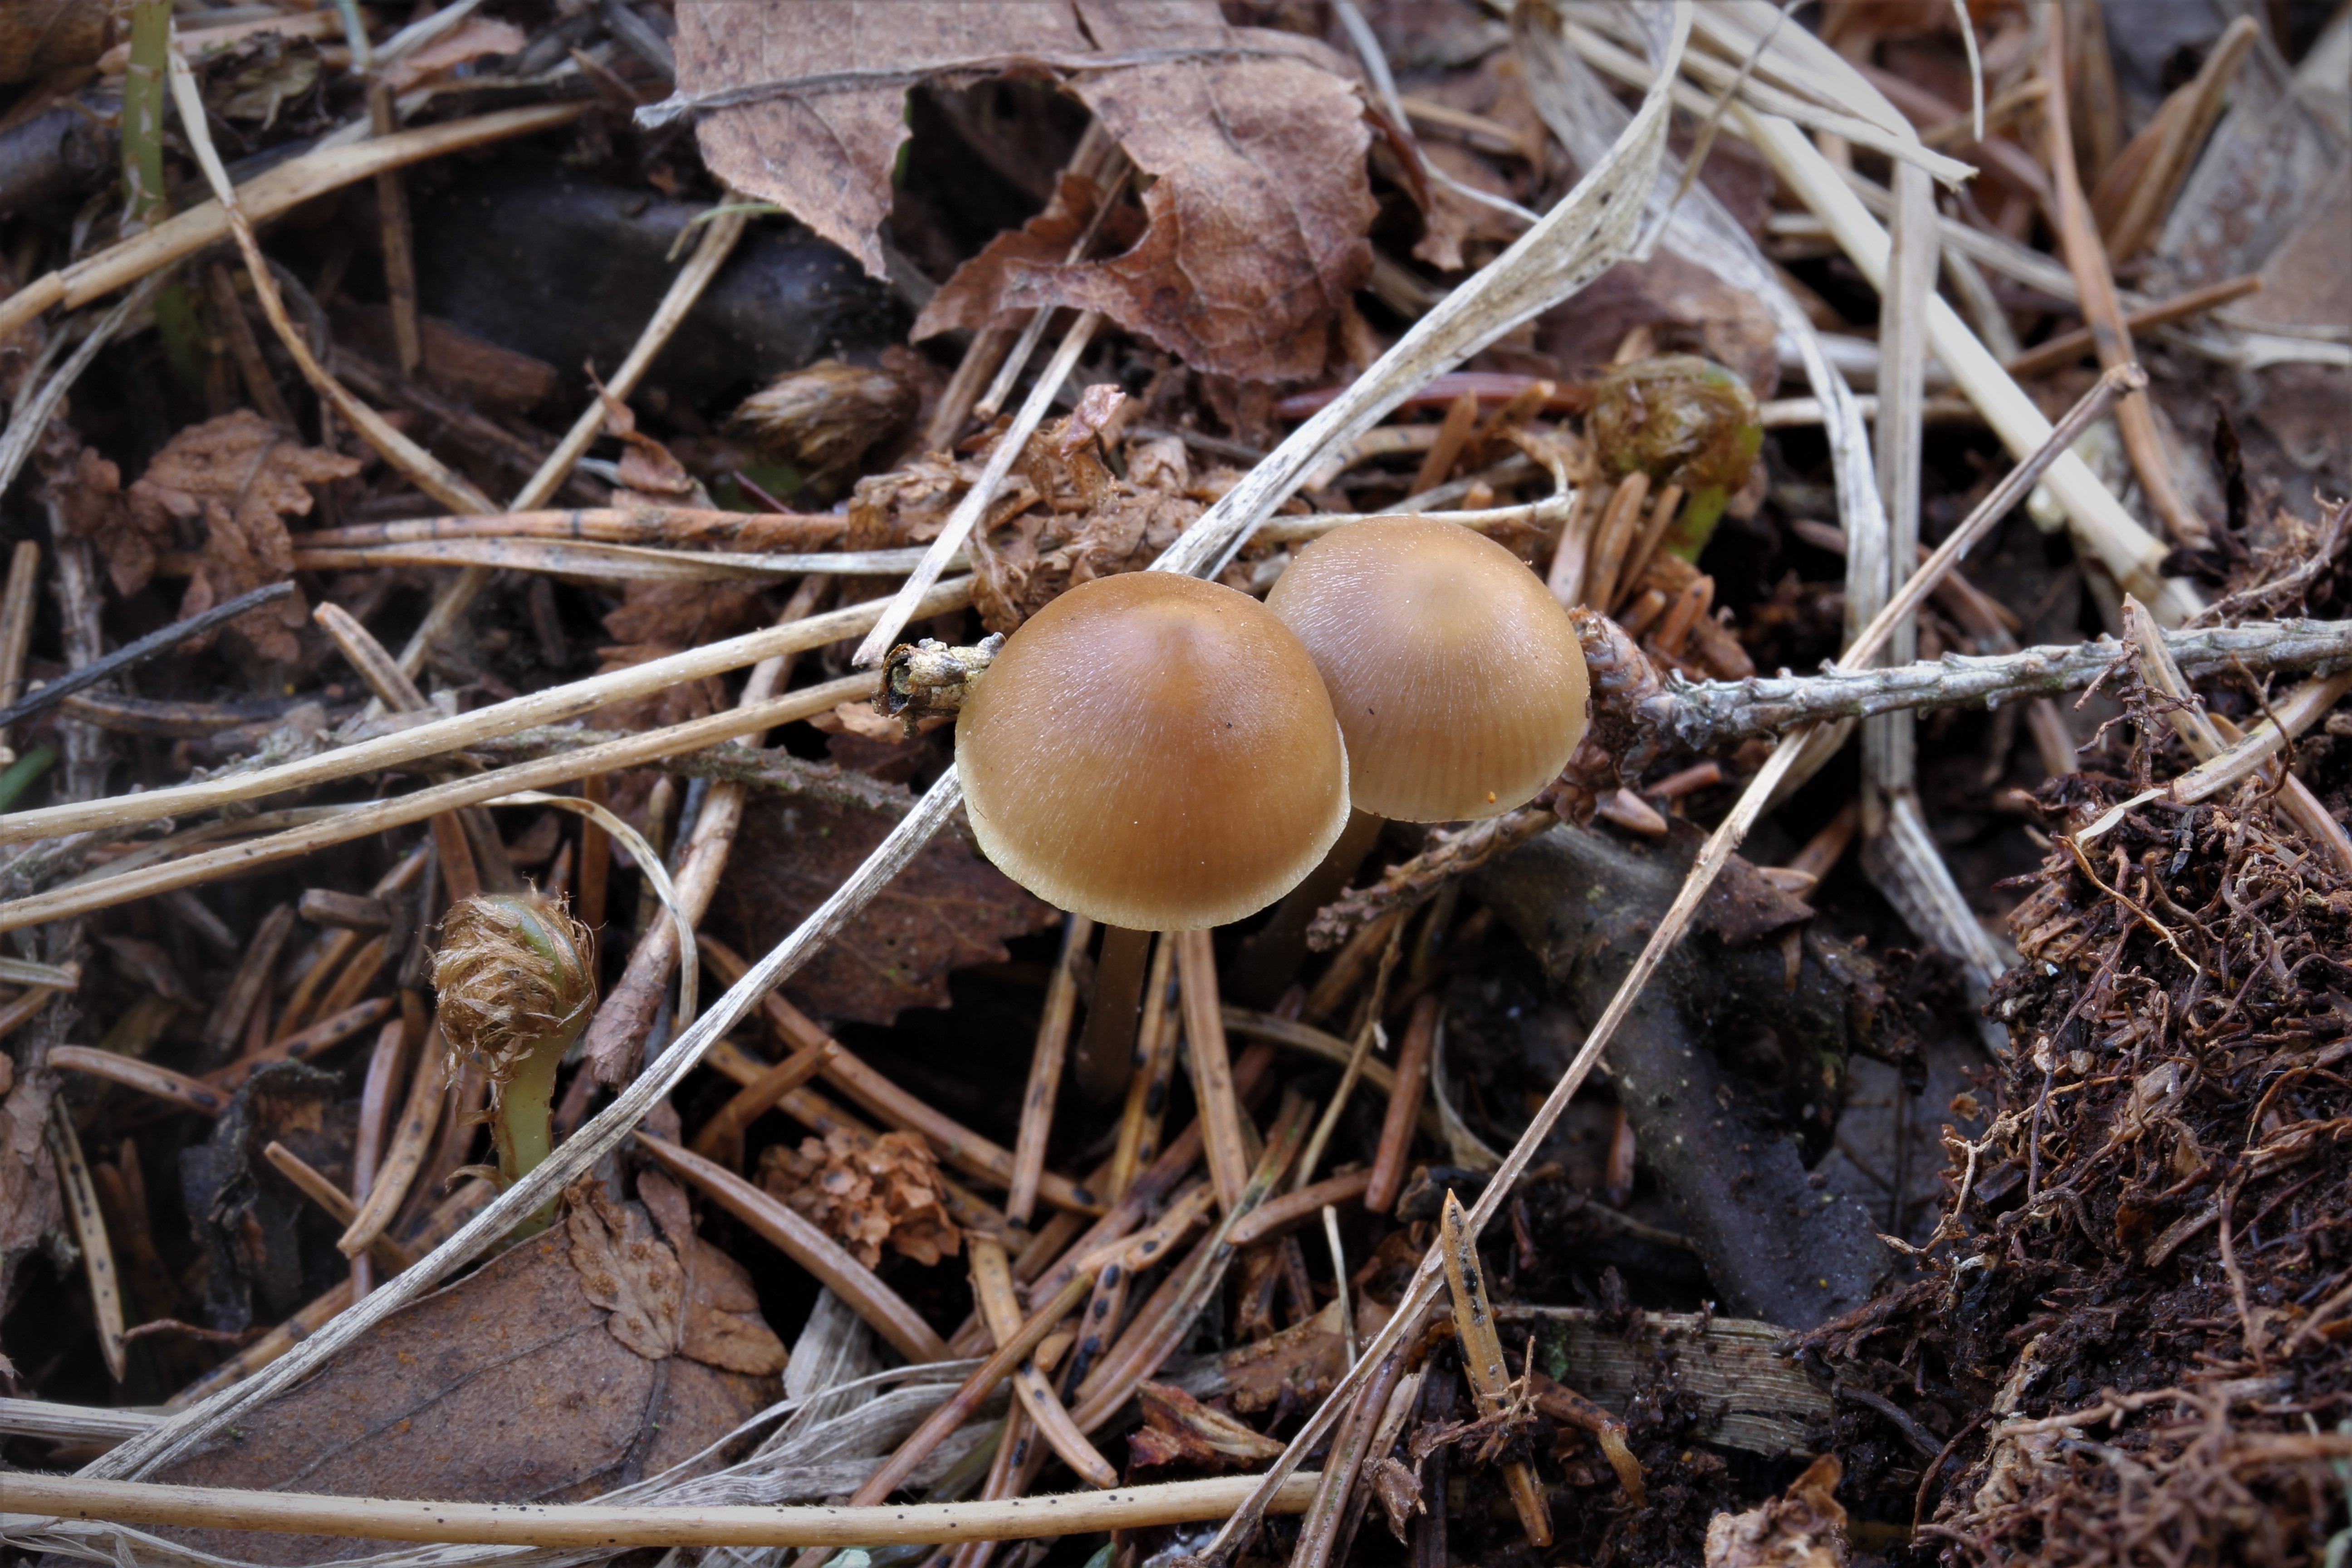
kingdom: Fungi
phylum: Basidiomycota
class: Agaricomycetes
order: Agaricales
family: Mycenaceae
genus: Mycena
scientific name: Mycena plumipes
